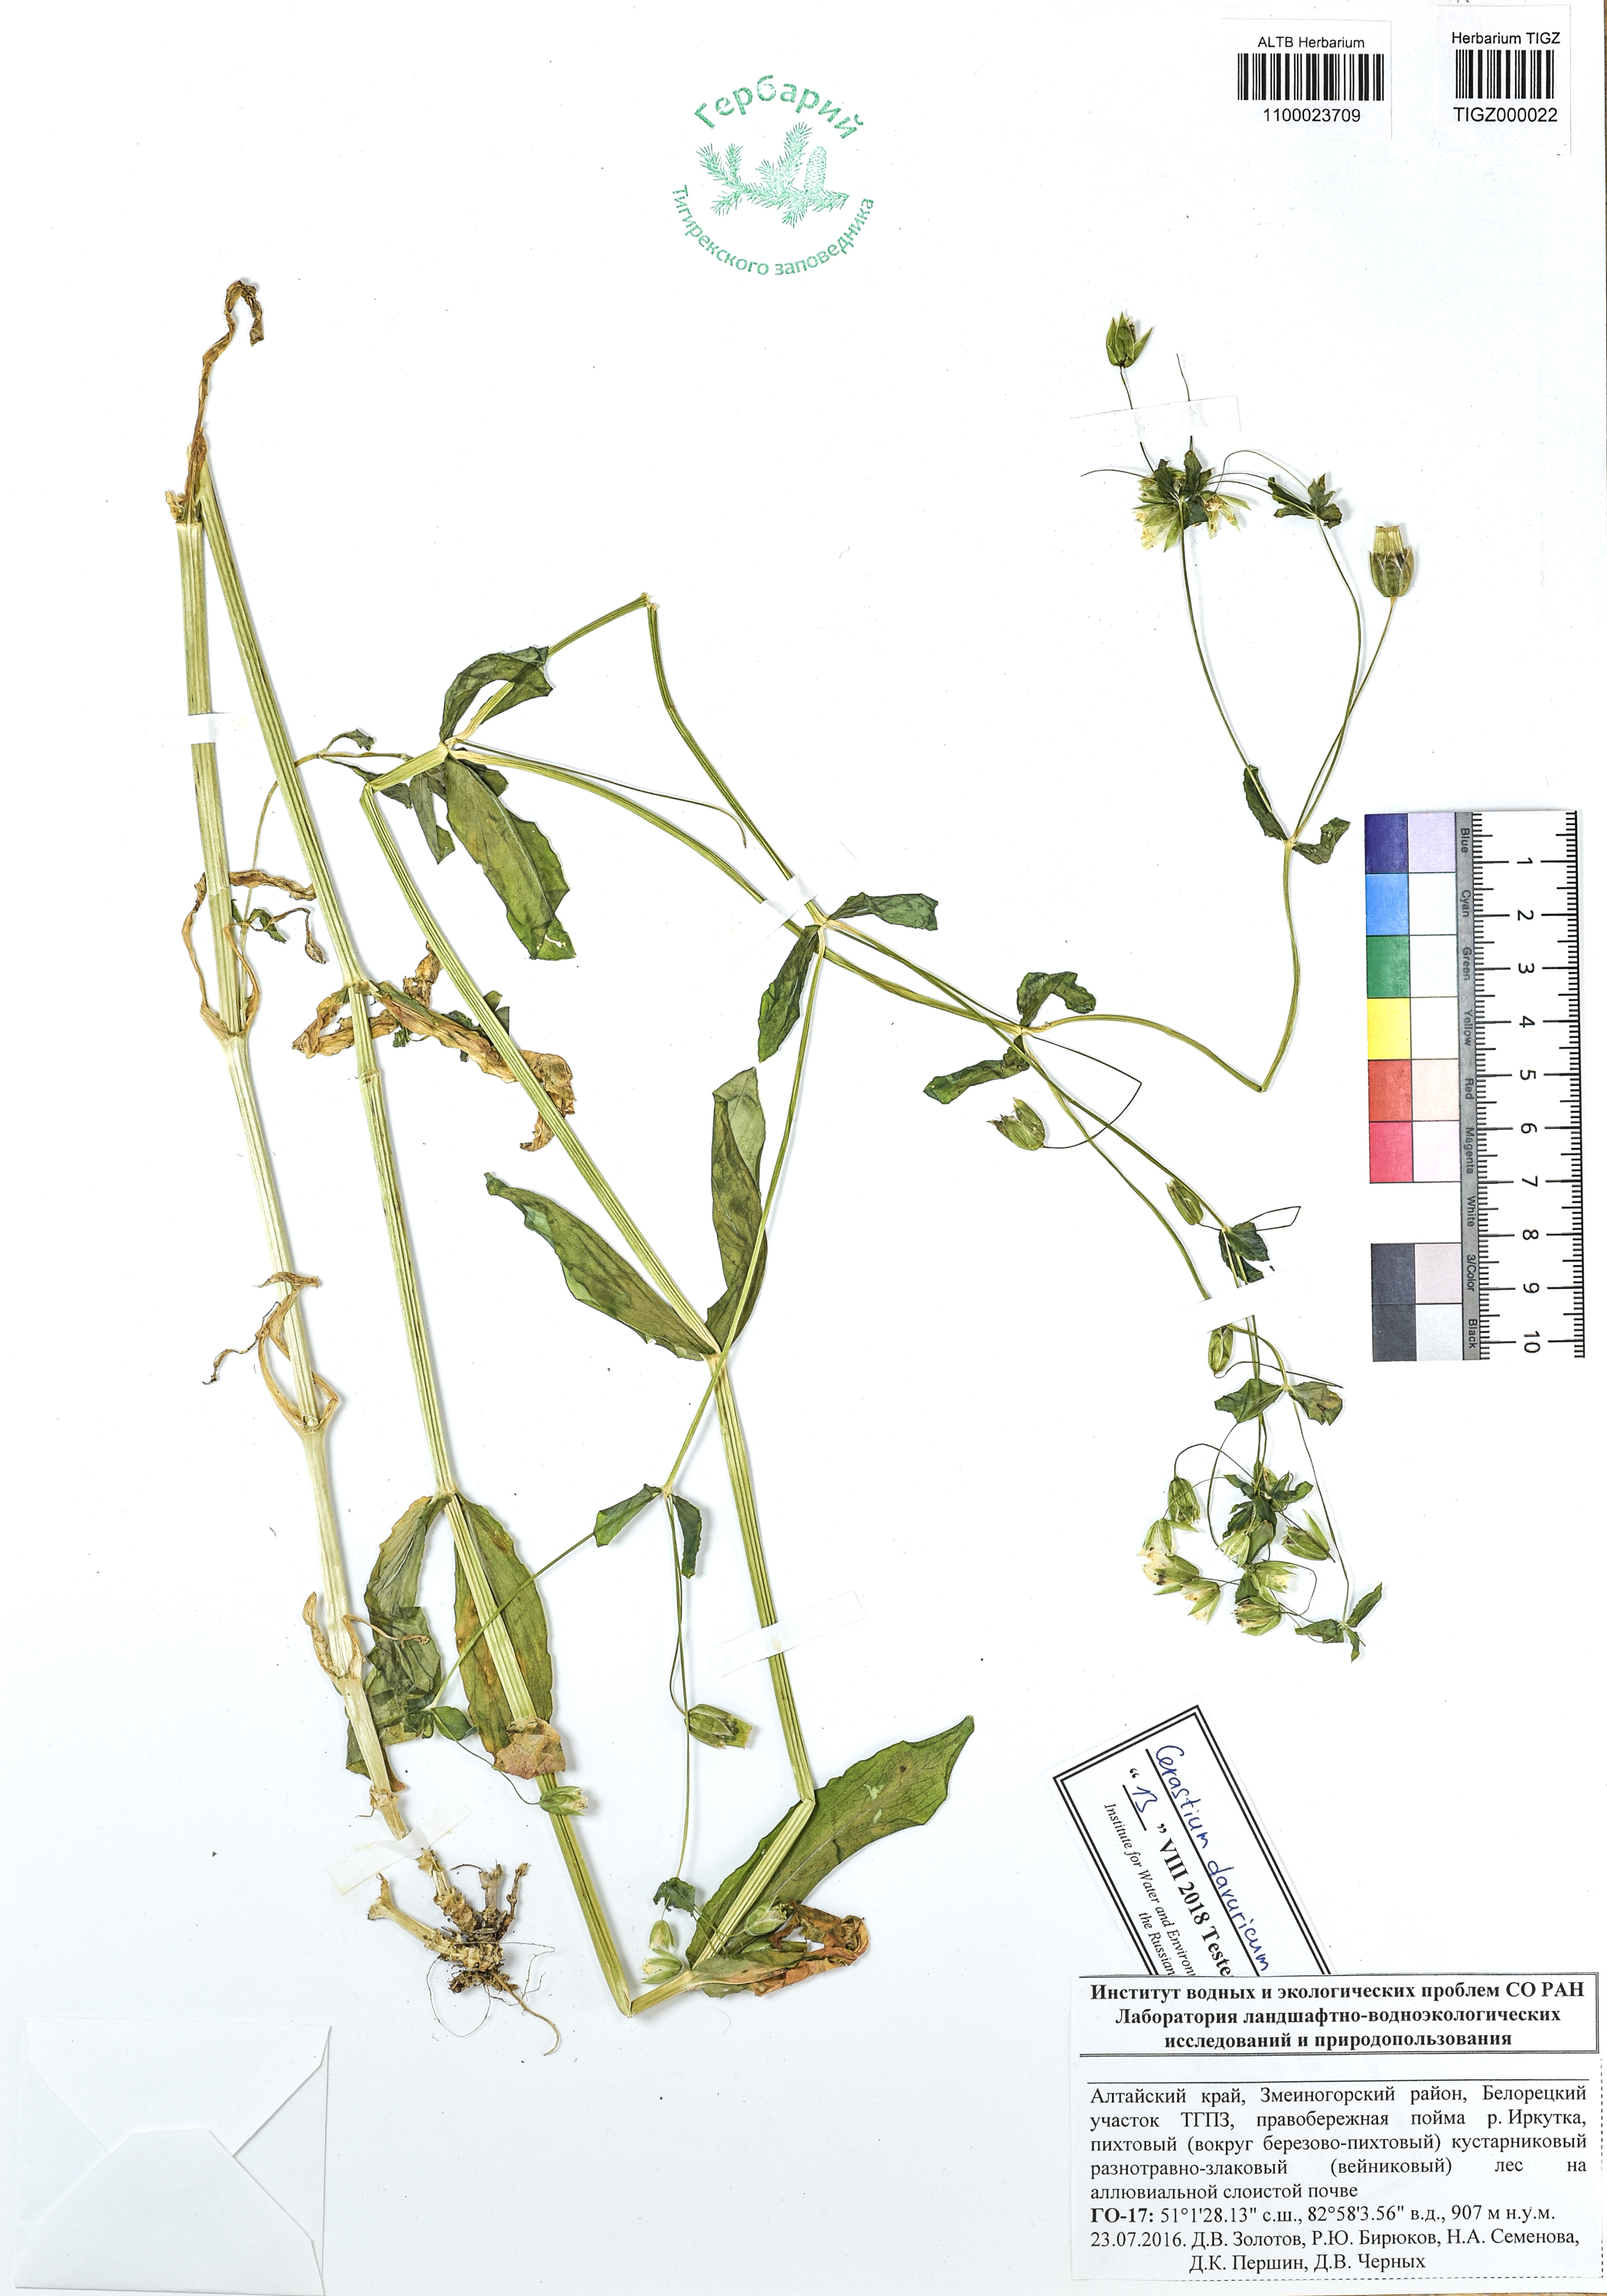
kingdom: Plantae
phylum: Tracheophyta
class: Magnoliopsida
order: Caryophyllales
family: Caryophyllaceae
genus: Dichodon
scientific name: Dichodon davuricum
